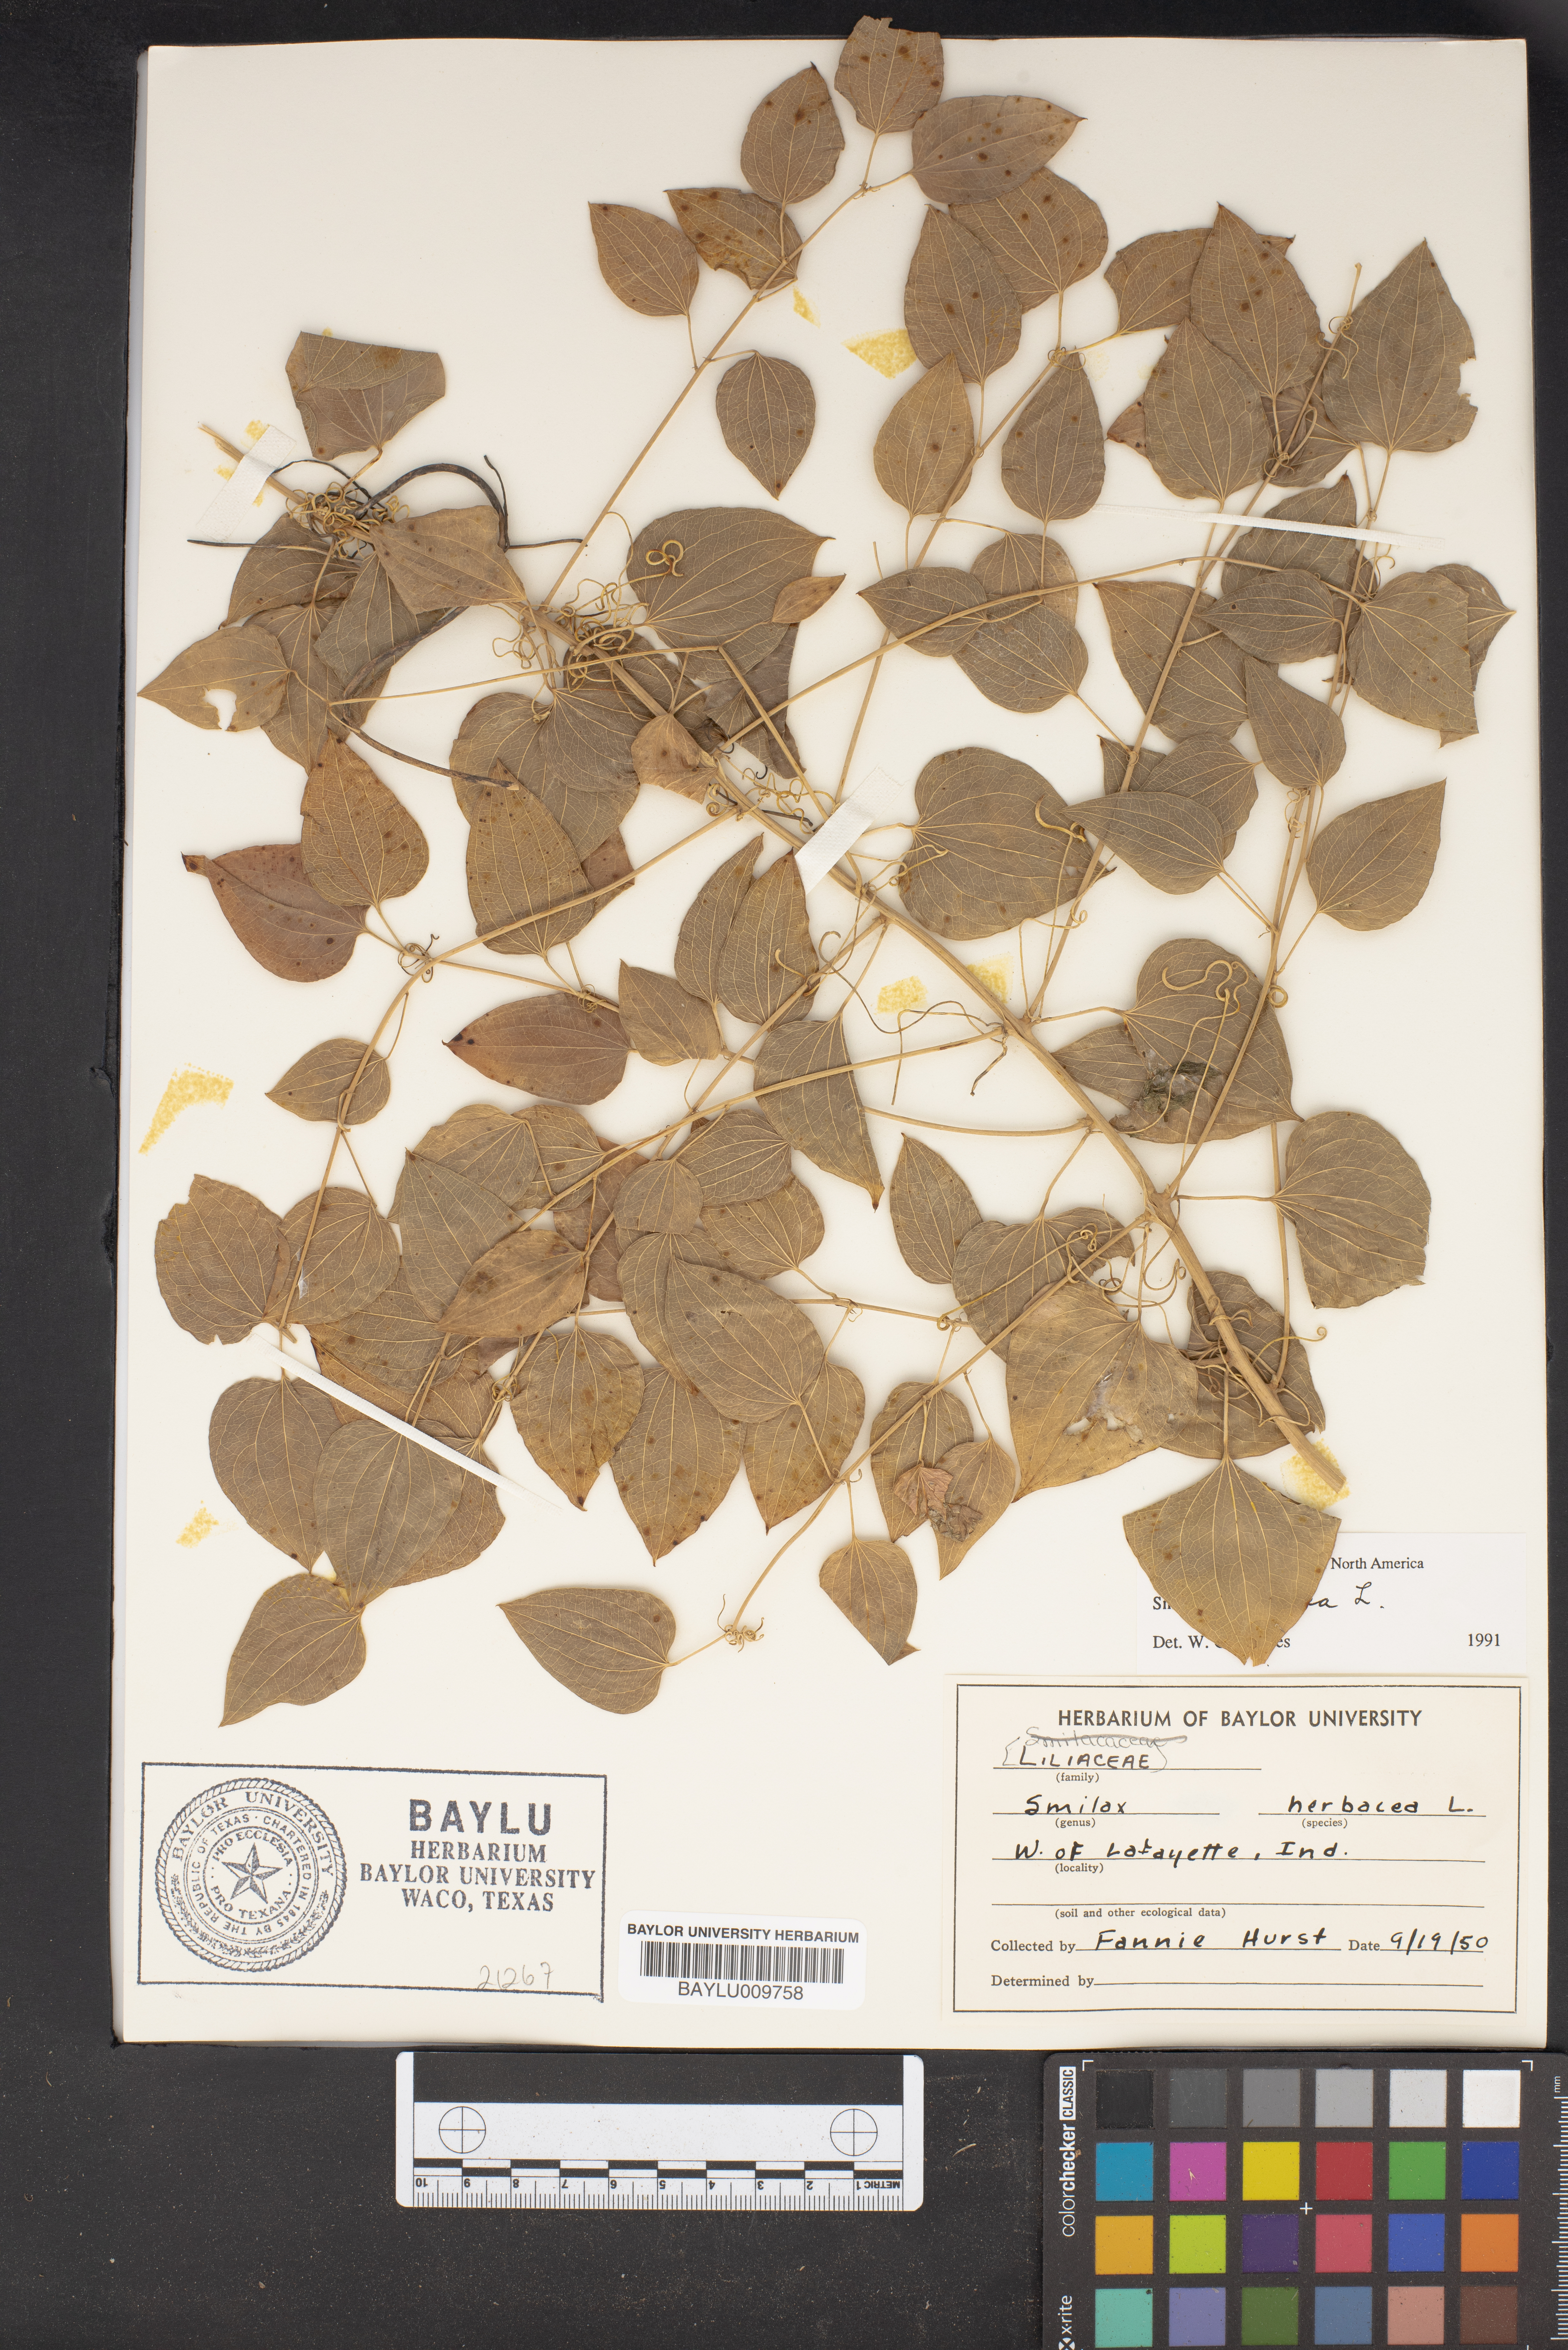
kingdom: Plantae
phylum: Tracheophyta
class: Liliopsida
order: Liliales
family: Smilacaceae
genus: Smilax
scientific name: Smilax herbacea
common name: Jacob's-ladder
